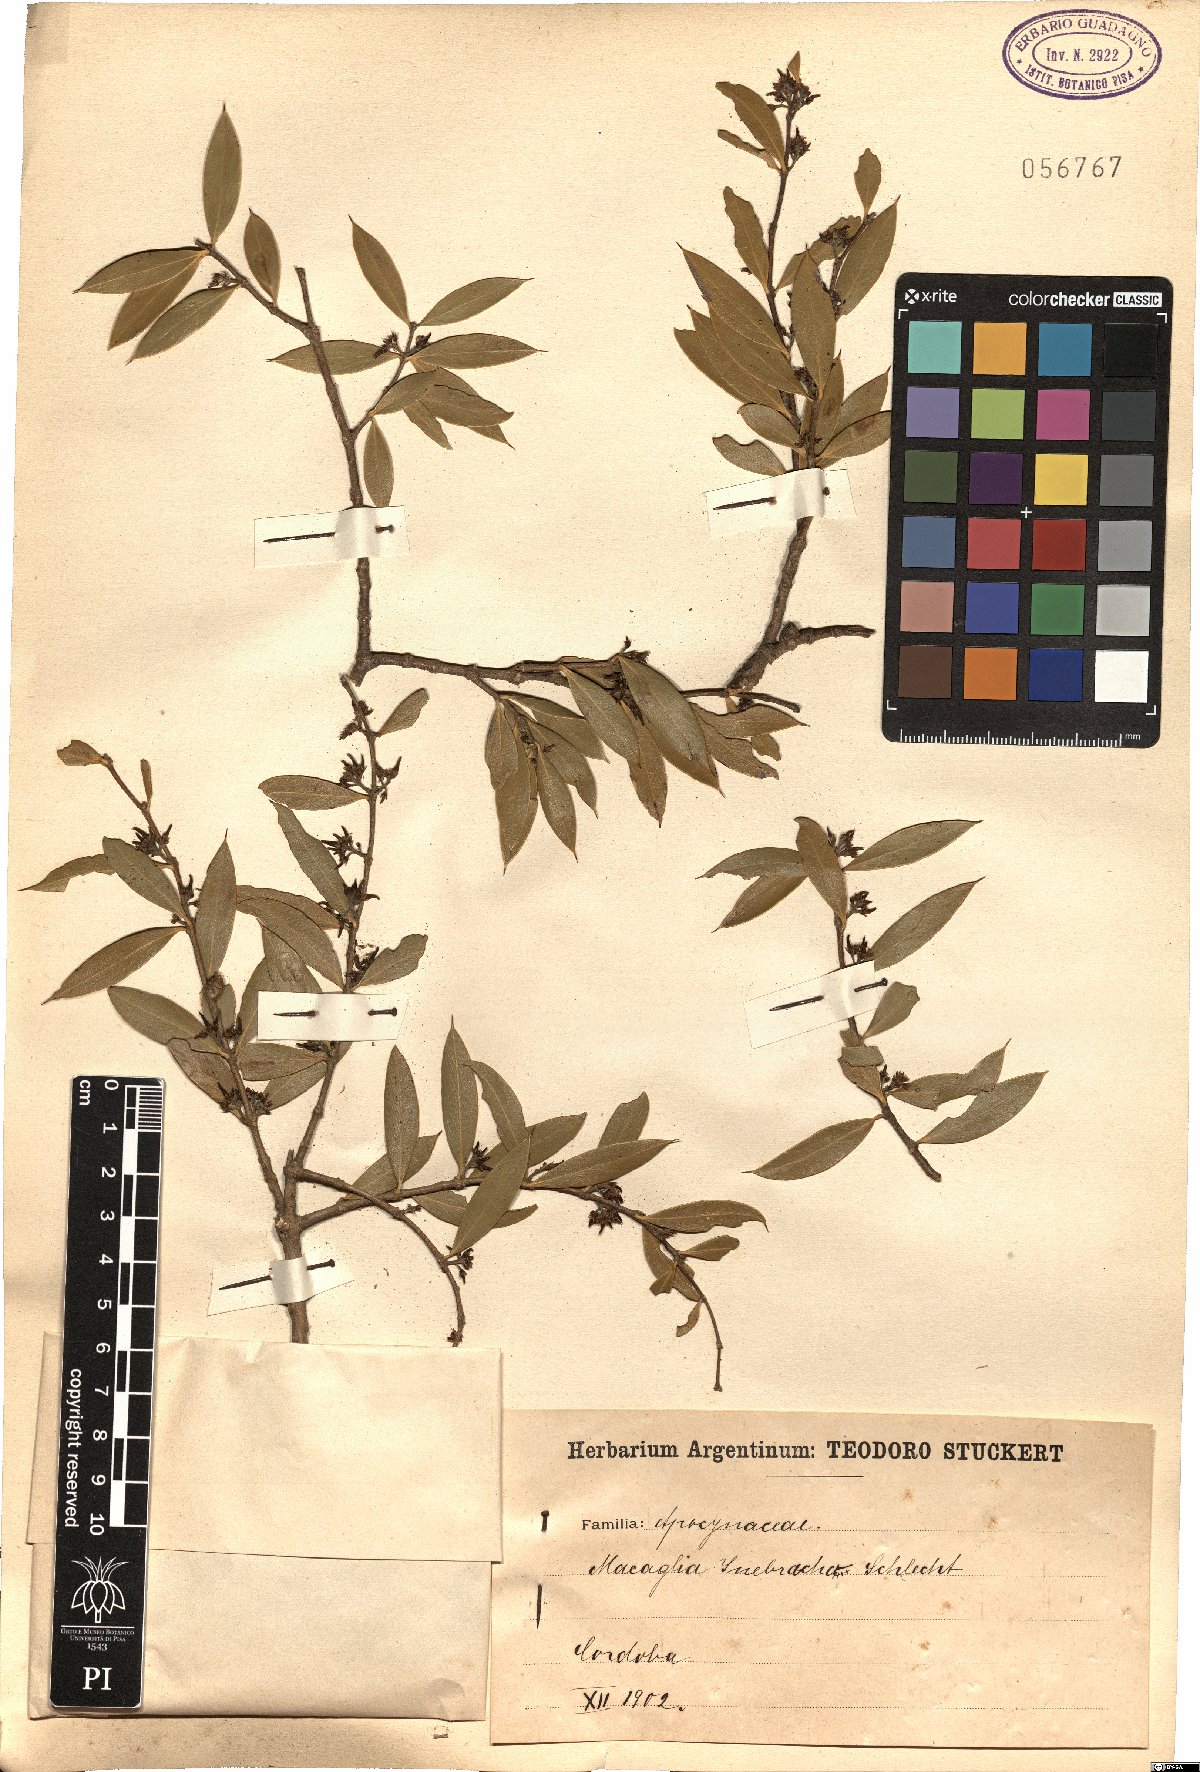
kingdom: Plantae
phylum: Tracheophyta
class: Magnoliopsida
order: Gentianales
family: Apocynaceae
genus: Aspidosperma
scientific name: Aspidosperma quebracho-blanco
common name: White quebracho
